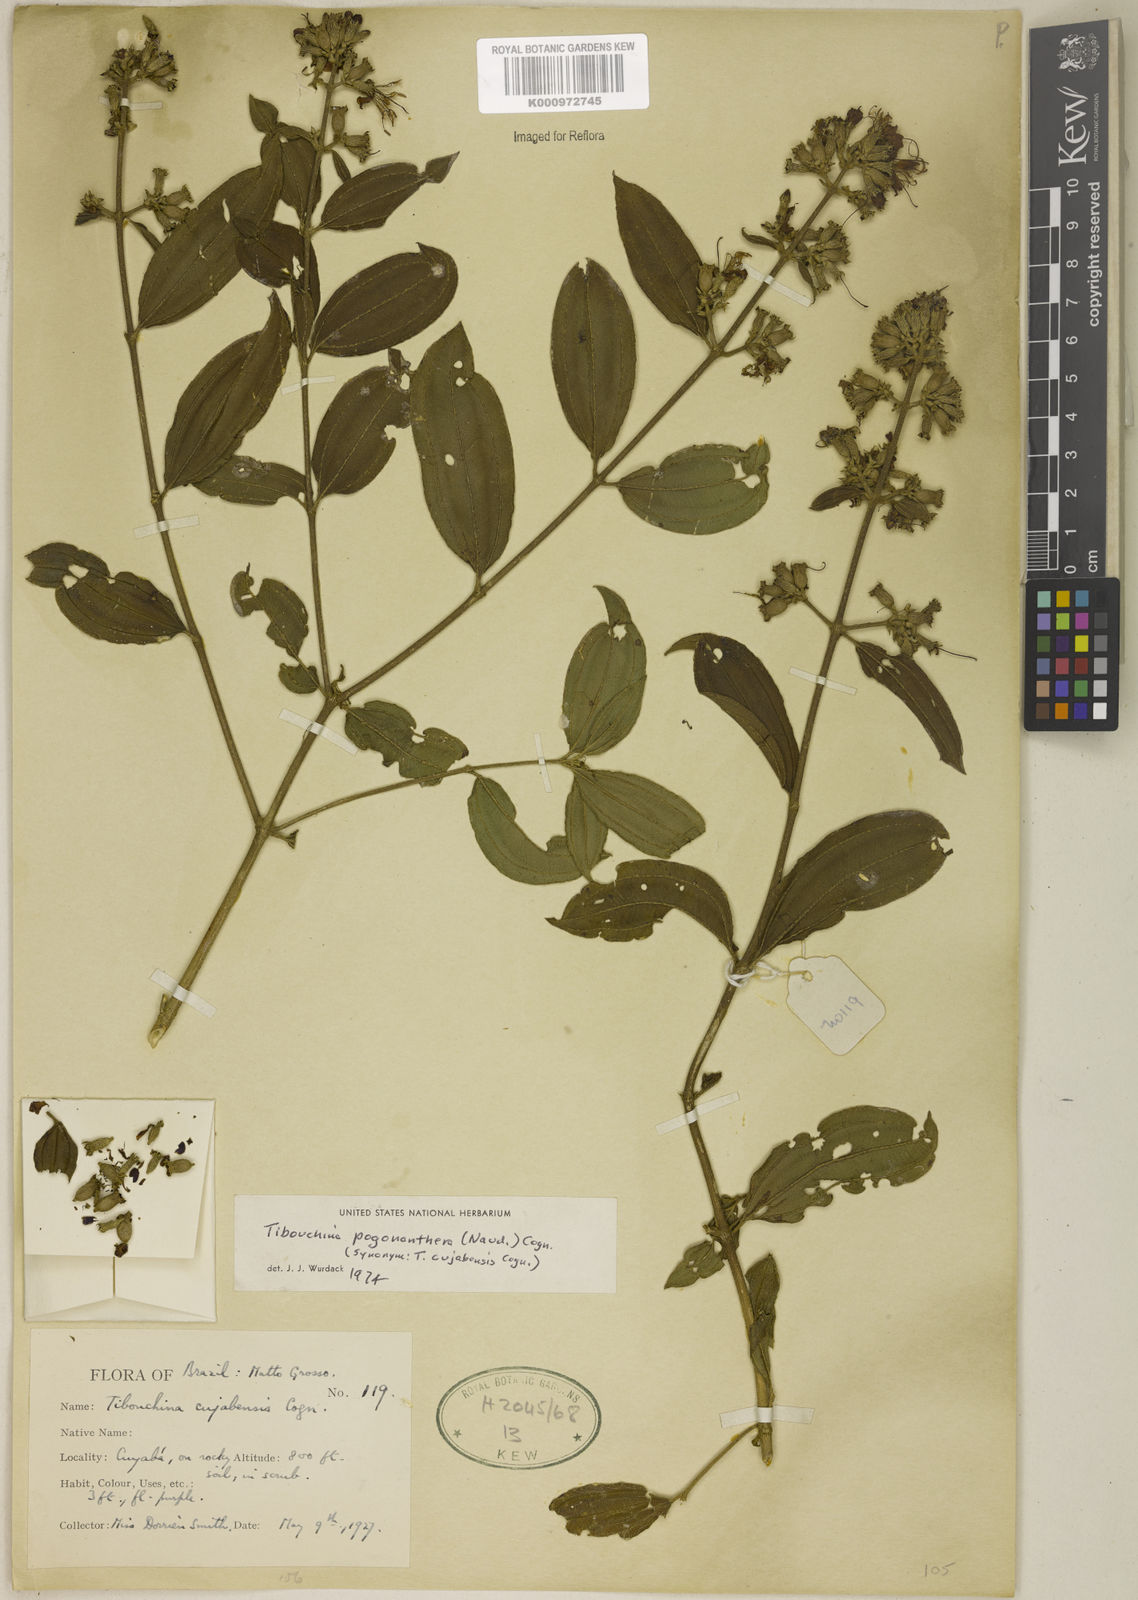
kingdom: Plantae
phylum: Tracheophyta
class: Magnoliopsida
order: Myrtales
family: Melastomataceae
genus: Pleroma
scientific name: Pleroma pogonantherum
